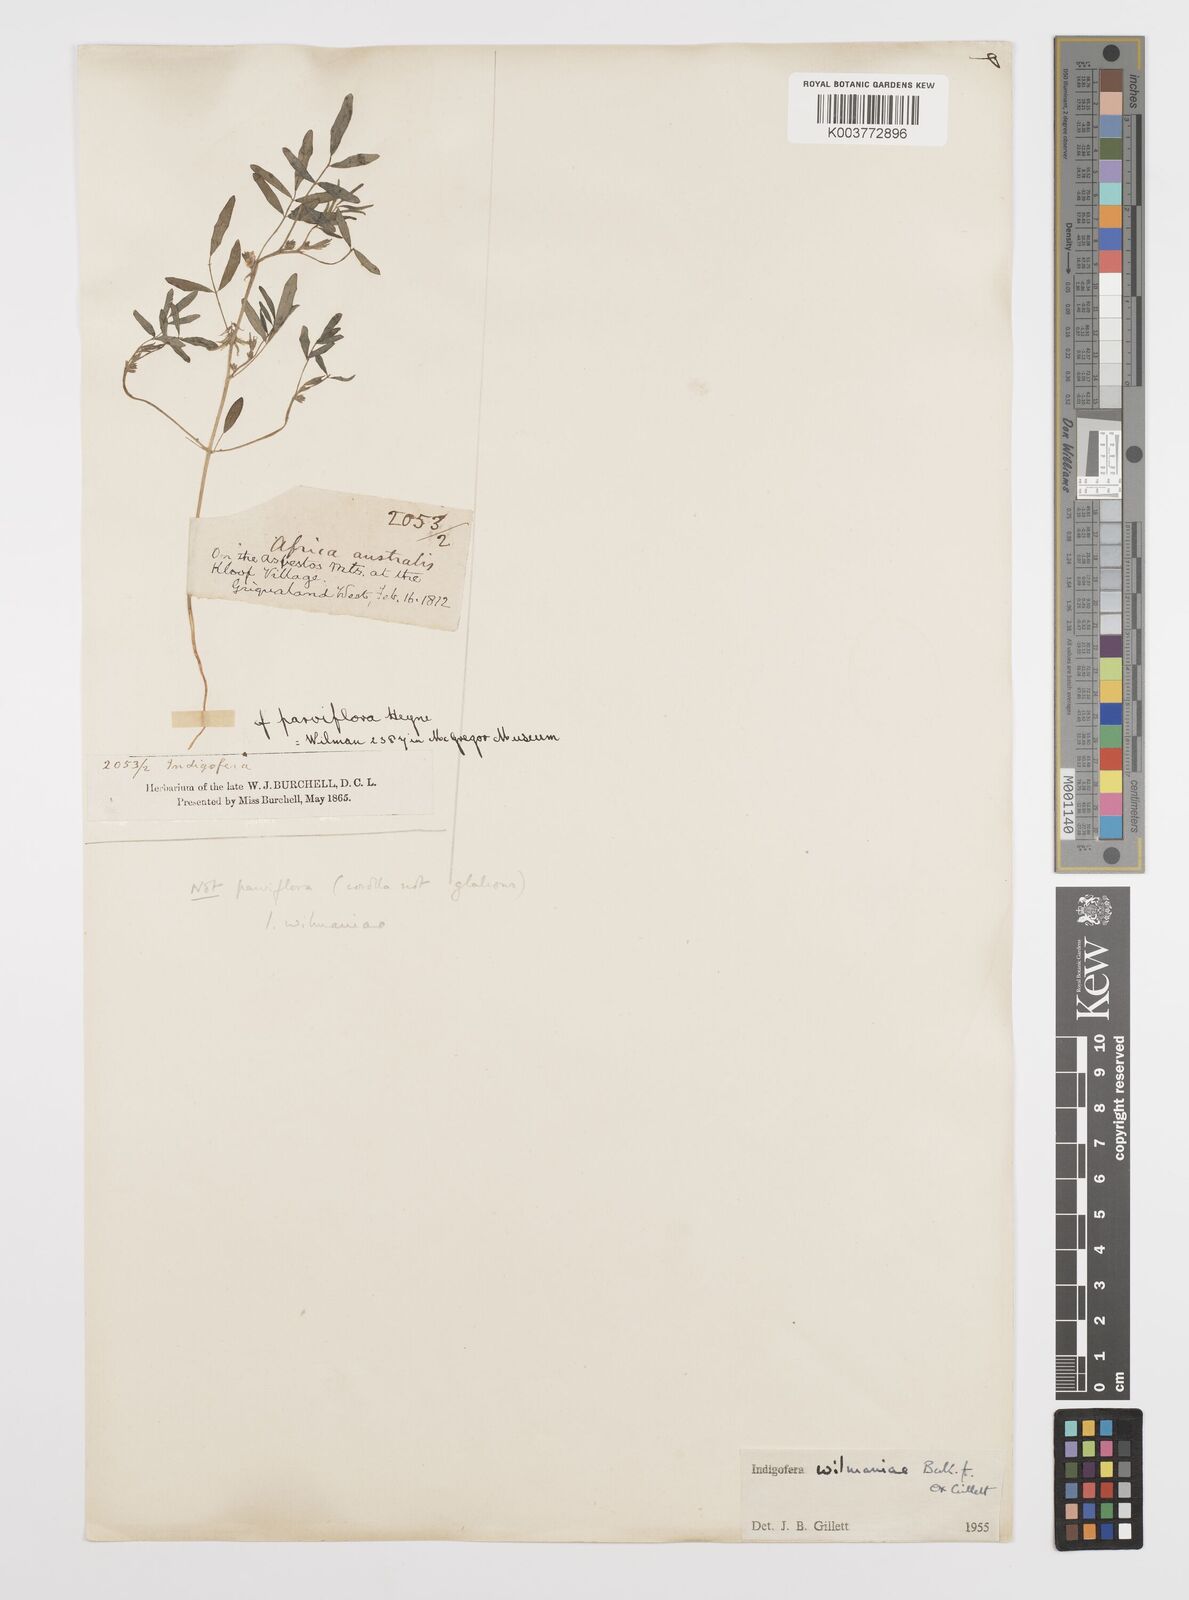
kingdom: Plantae
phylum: Tracheophyta
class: Magnoliopsida
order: Fabales
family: Fabaceae
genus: Indigofera
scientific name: Indigofera damarana
